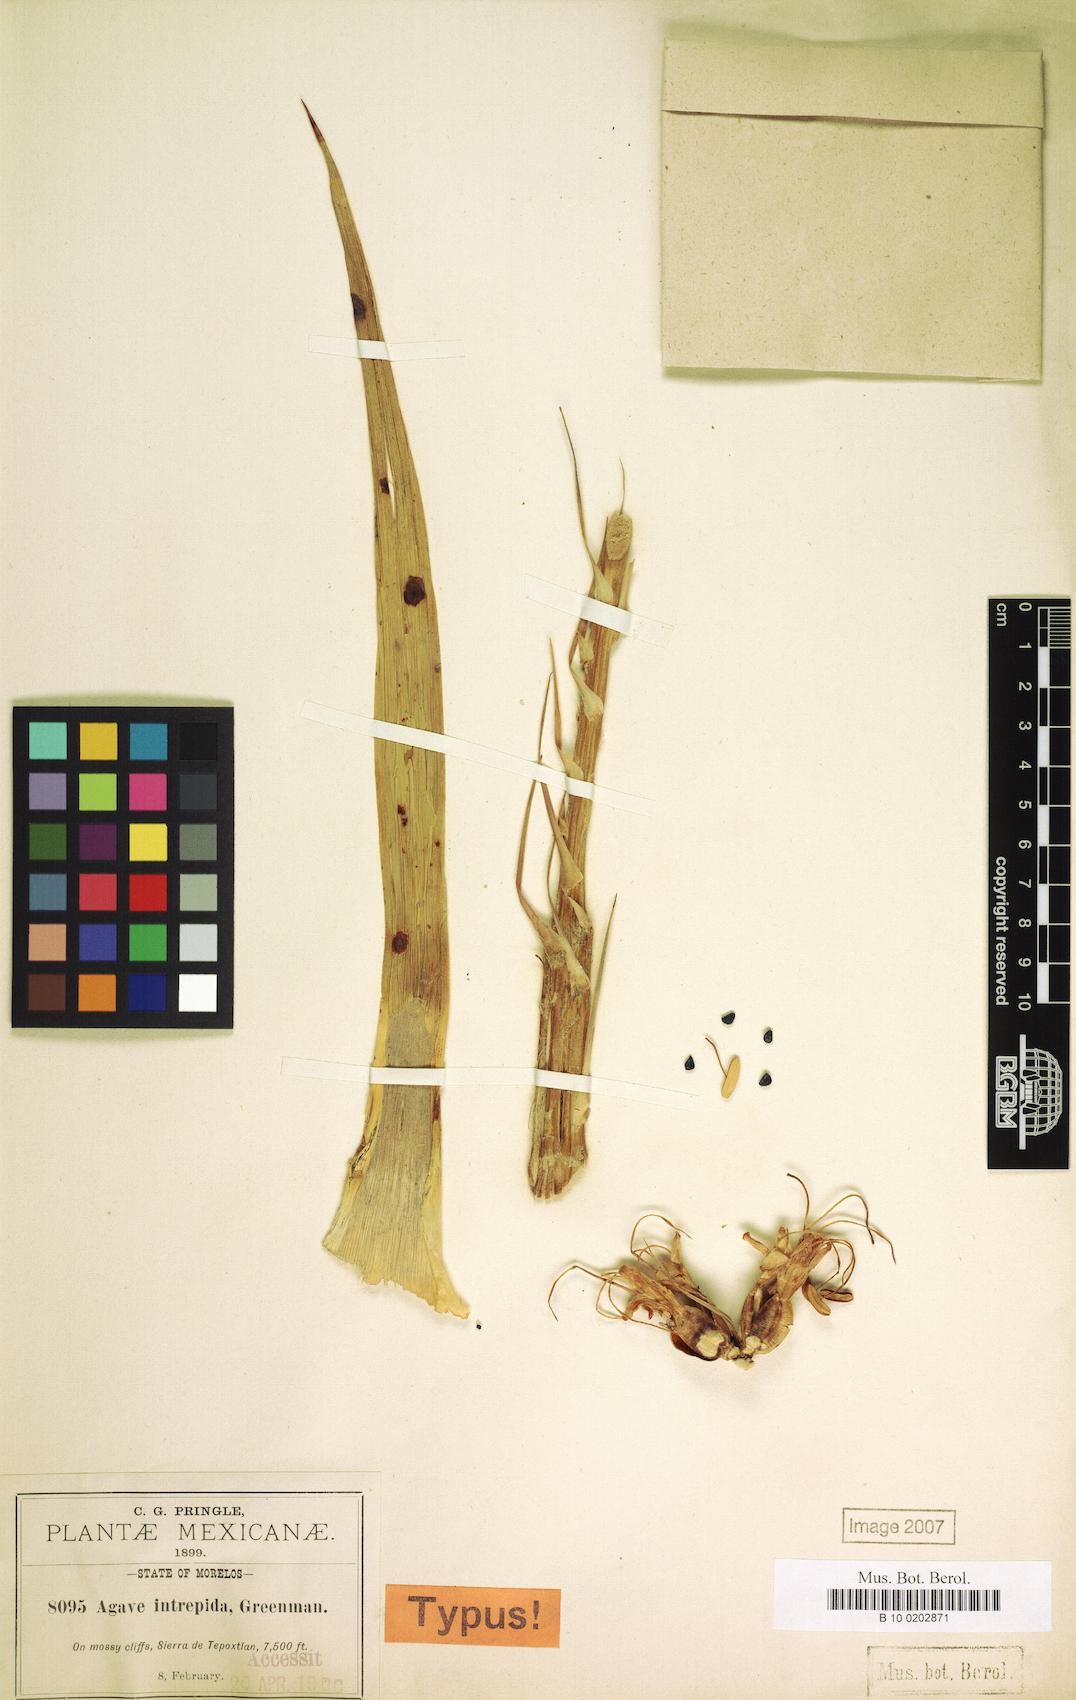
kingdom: Plantae
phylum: Tracheophyta
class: Liliopsida
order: Asparagales
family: Asparagaceae
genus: Agave
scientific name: Agave dealbata
